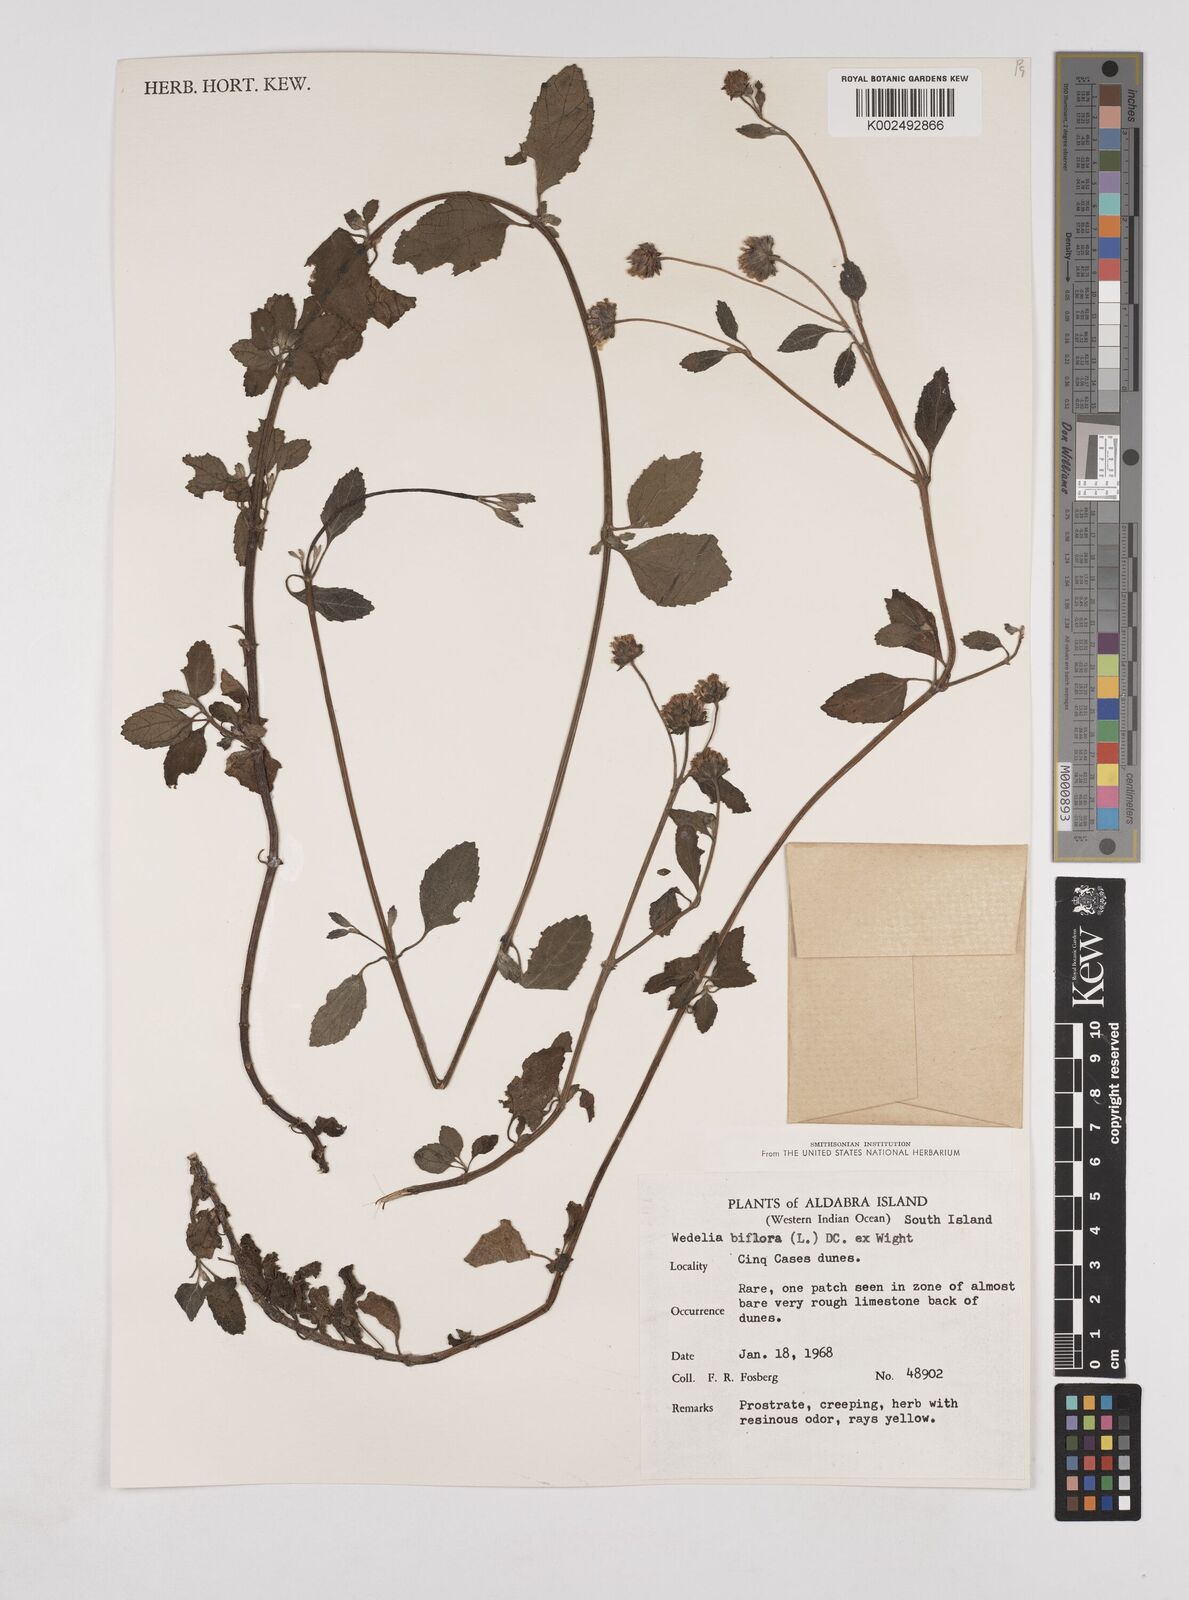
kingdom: Plantae
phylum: Tracheophyta
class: Magnoliopsida
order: Asterales
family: Asteraceae
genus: Wollastonia
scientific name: Wollastonia biflora
